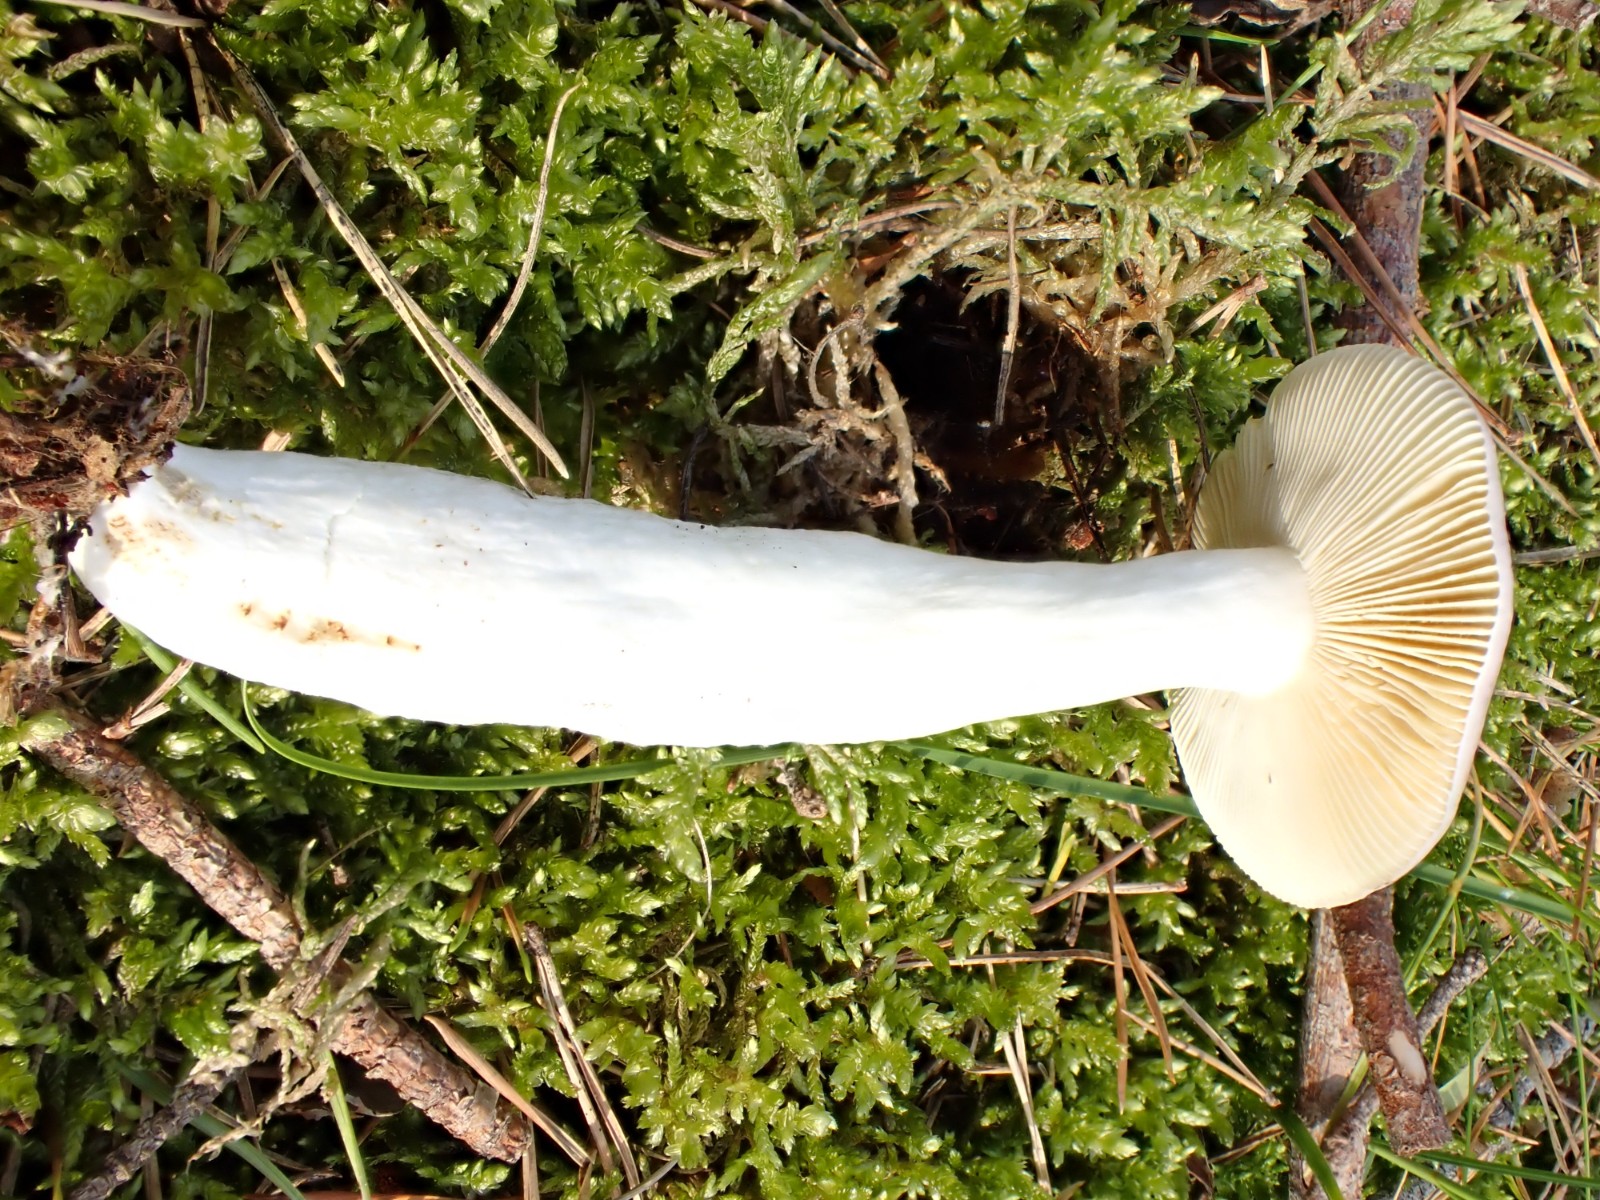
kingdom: Fungi
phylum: Basidiomycota
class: Agaricomycetes
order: Russulales
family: Russulaceae
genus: Russula
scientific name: Russula caerulea
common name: puklet skørhat
